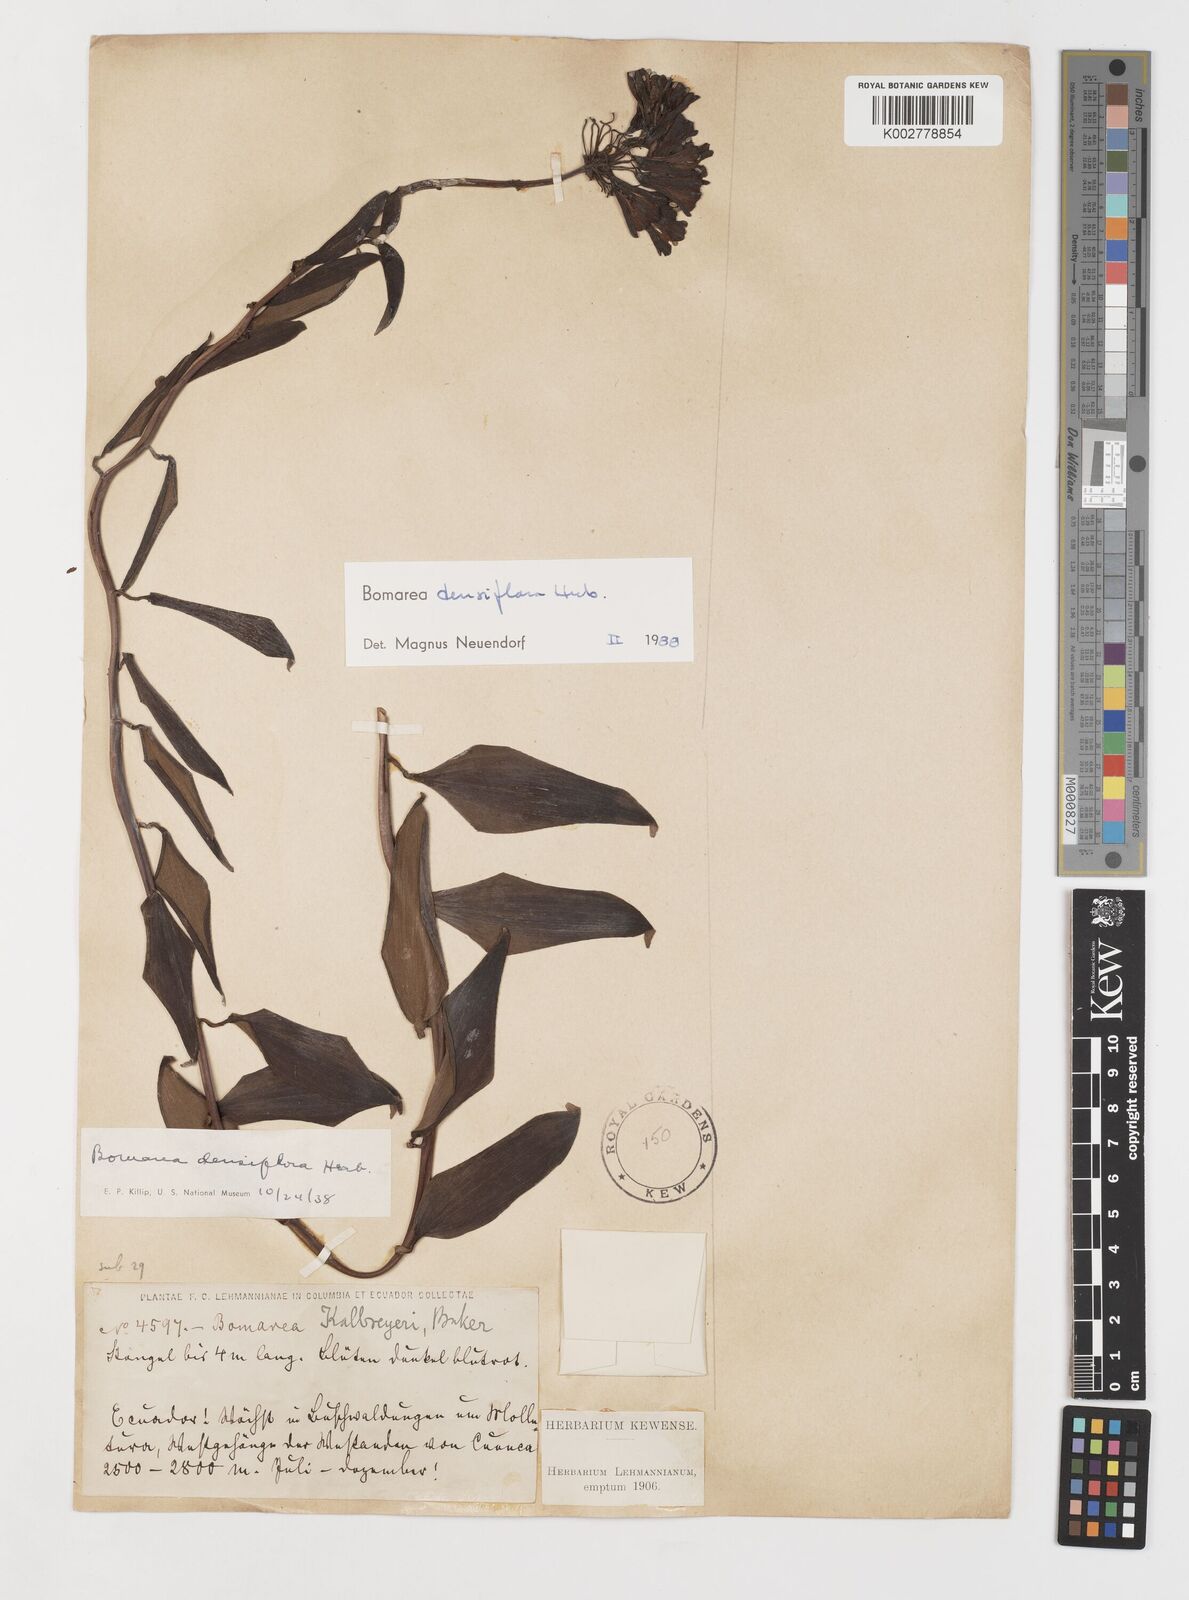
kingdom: Plantae
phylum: Tracheophyta
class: Liliopsida
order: Liliales
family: Alstroemeriaceae
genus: Bomarea
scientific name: Bomarea densiflora
